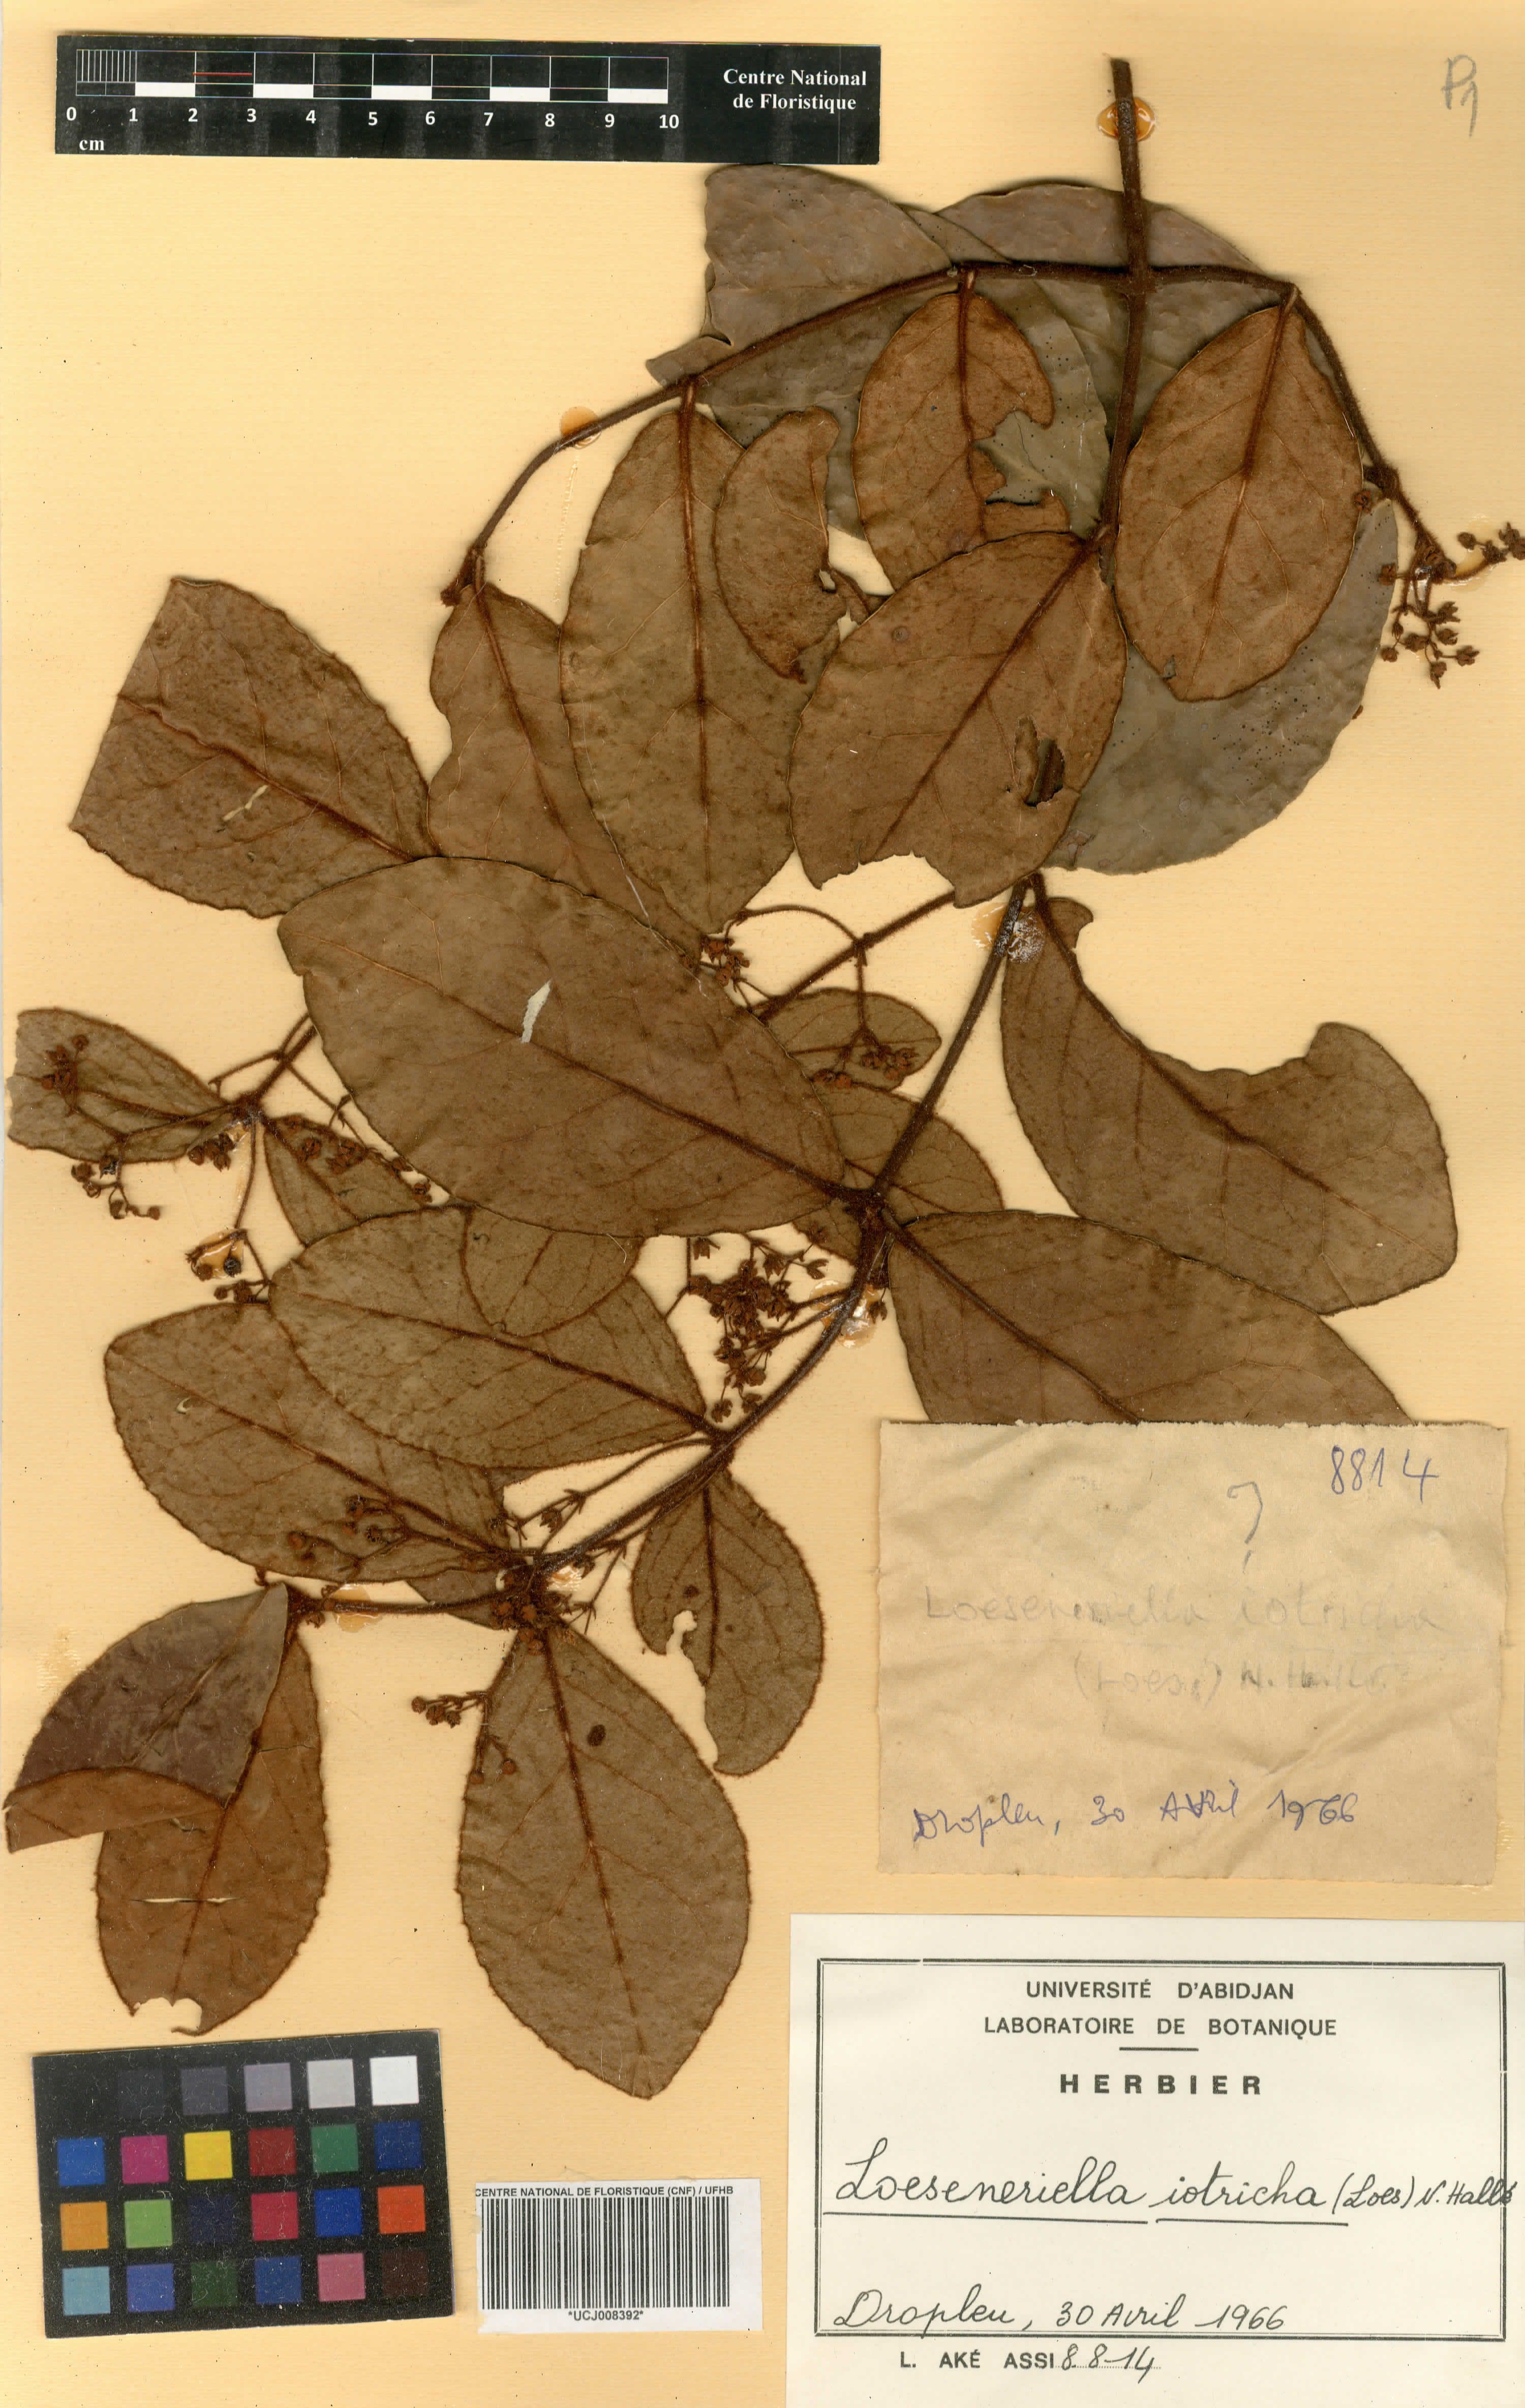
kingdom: Plantae
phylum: Tracheophyta
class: Magnoliopsida
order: Celastrales
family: Celastraceae
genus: Loeseneriella
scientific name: Loeseneriella iotricha
